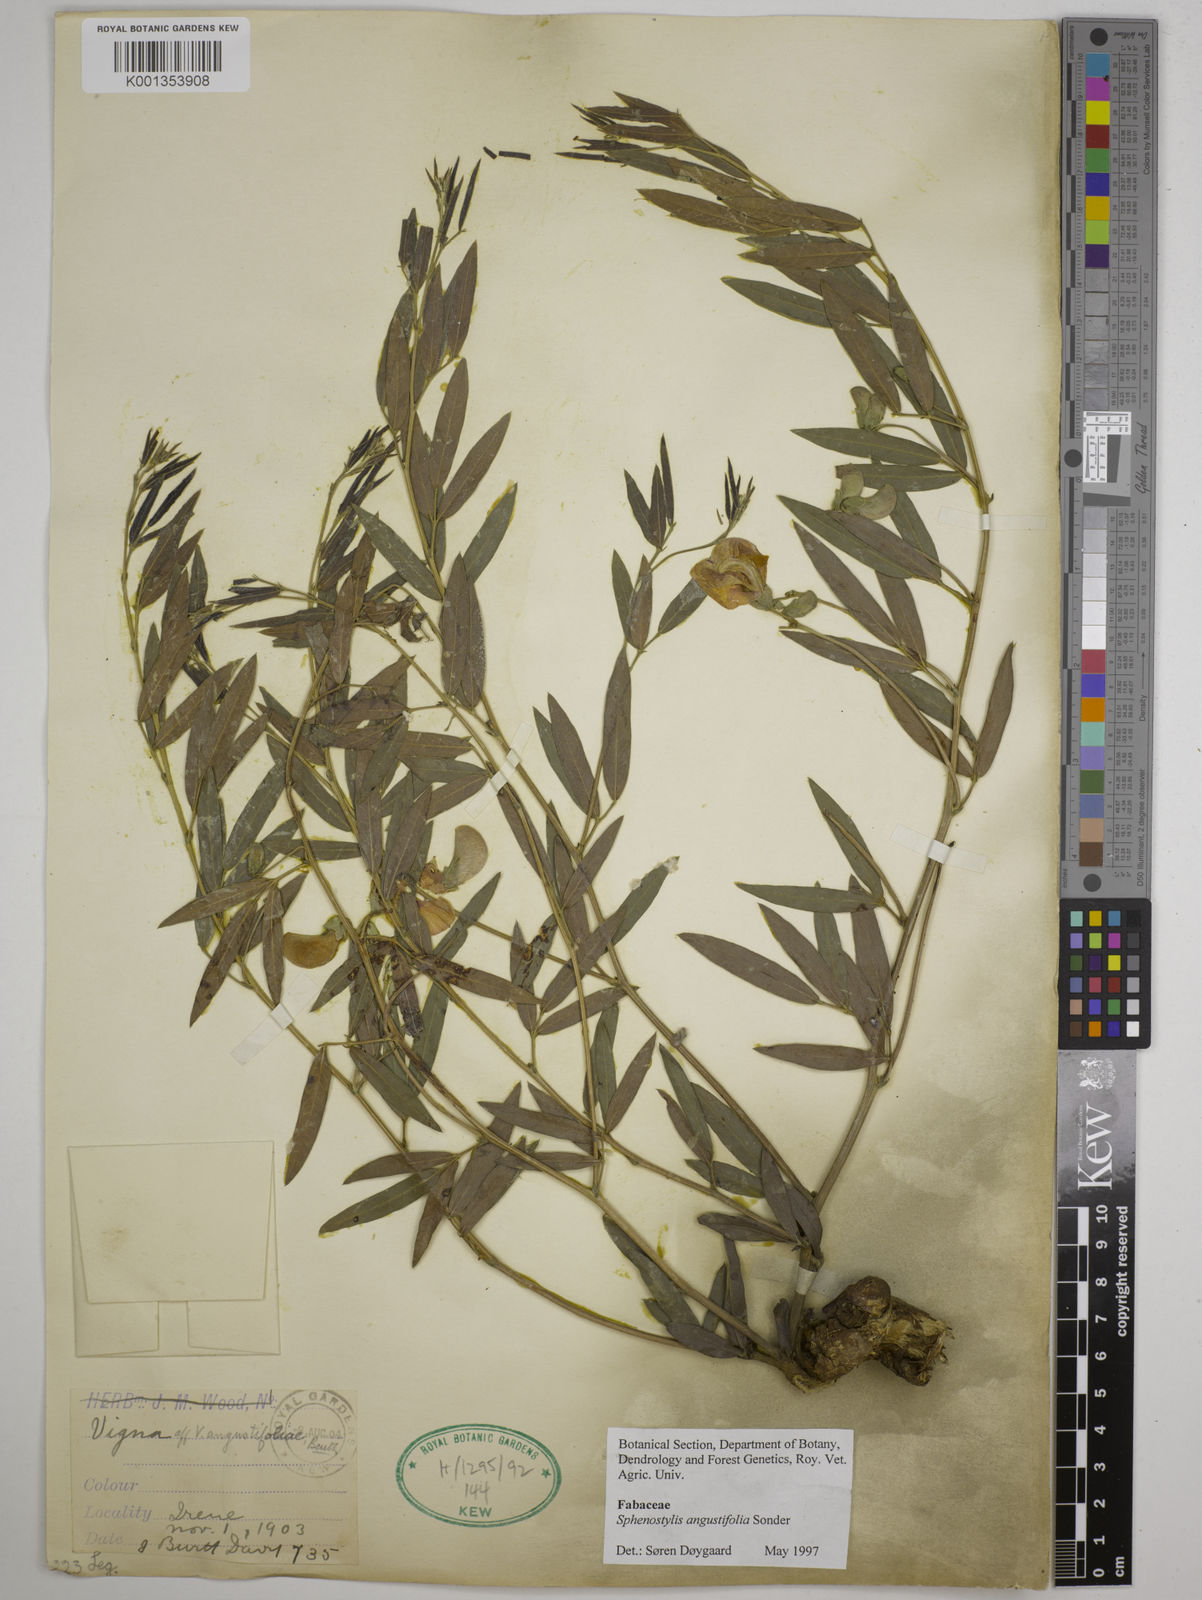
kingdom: Plantae
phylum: Tracheophyta
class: Magnoliopsida
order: Fabales
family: Fabaceae
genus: Sphenostylis
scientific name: Sphenostylis angustifolia
